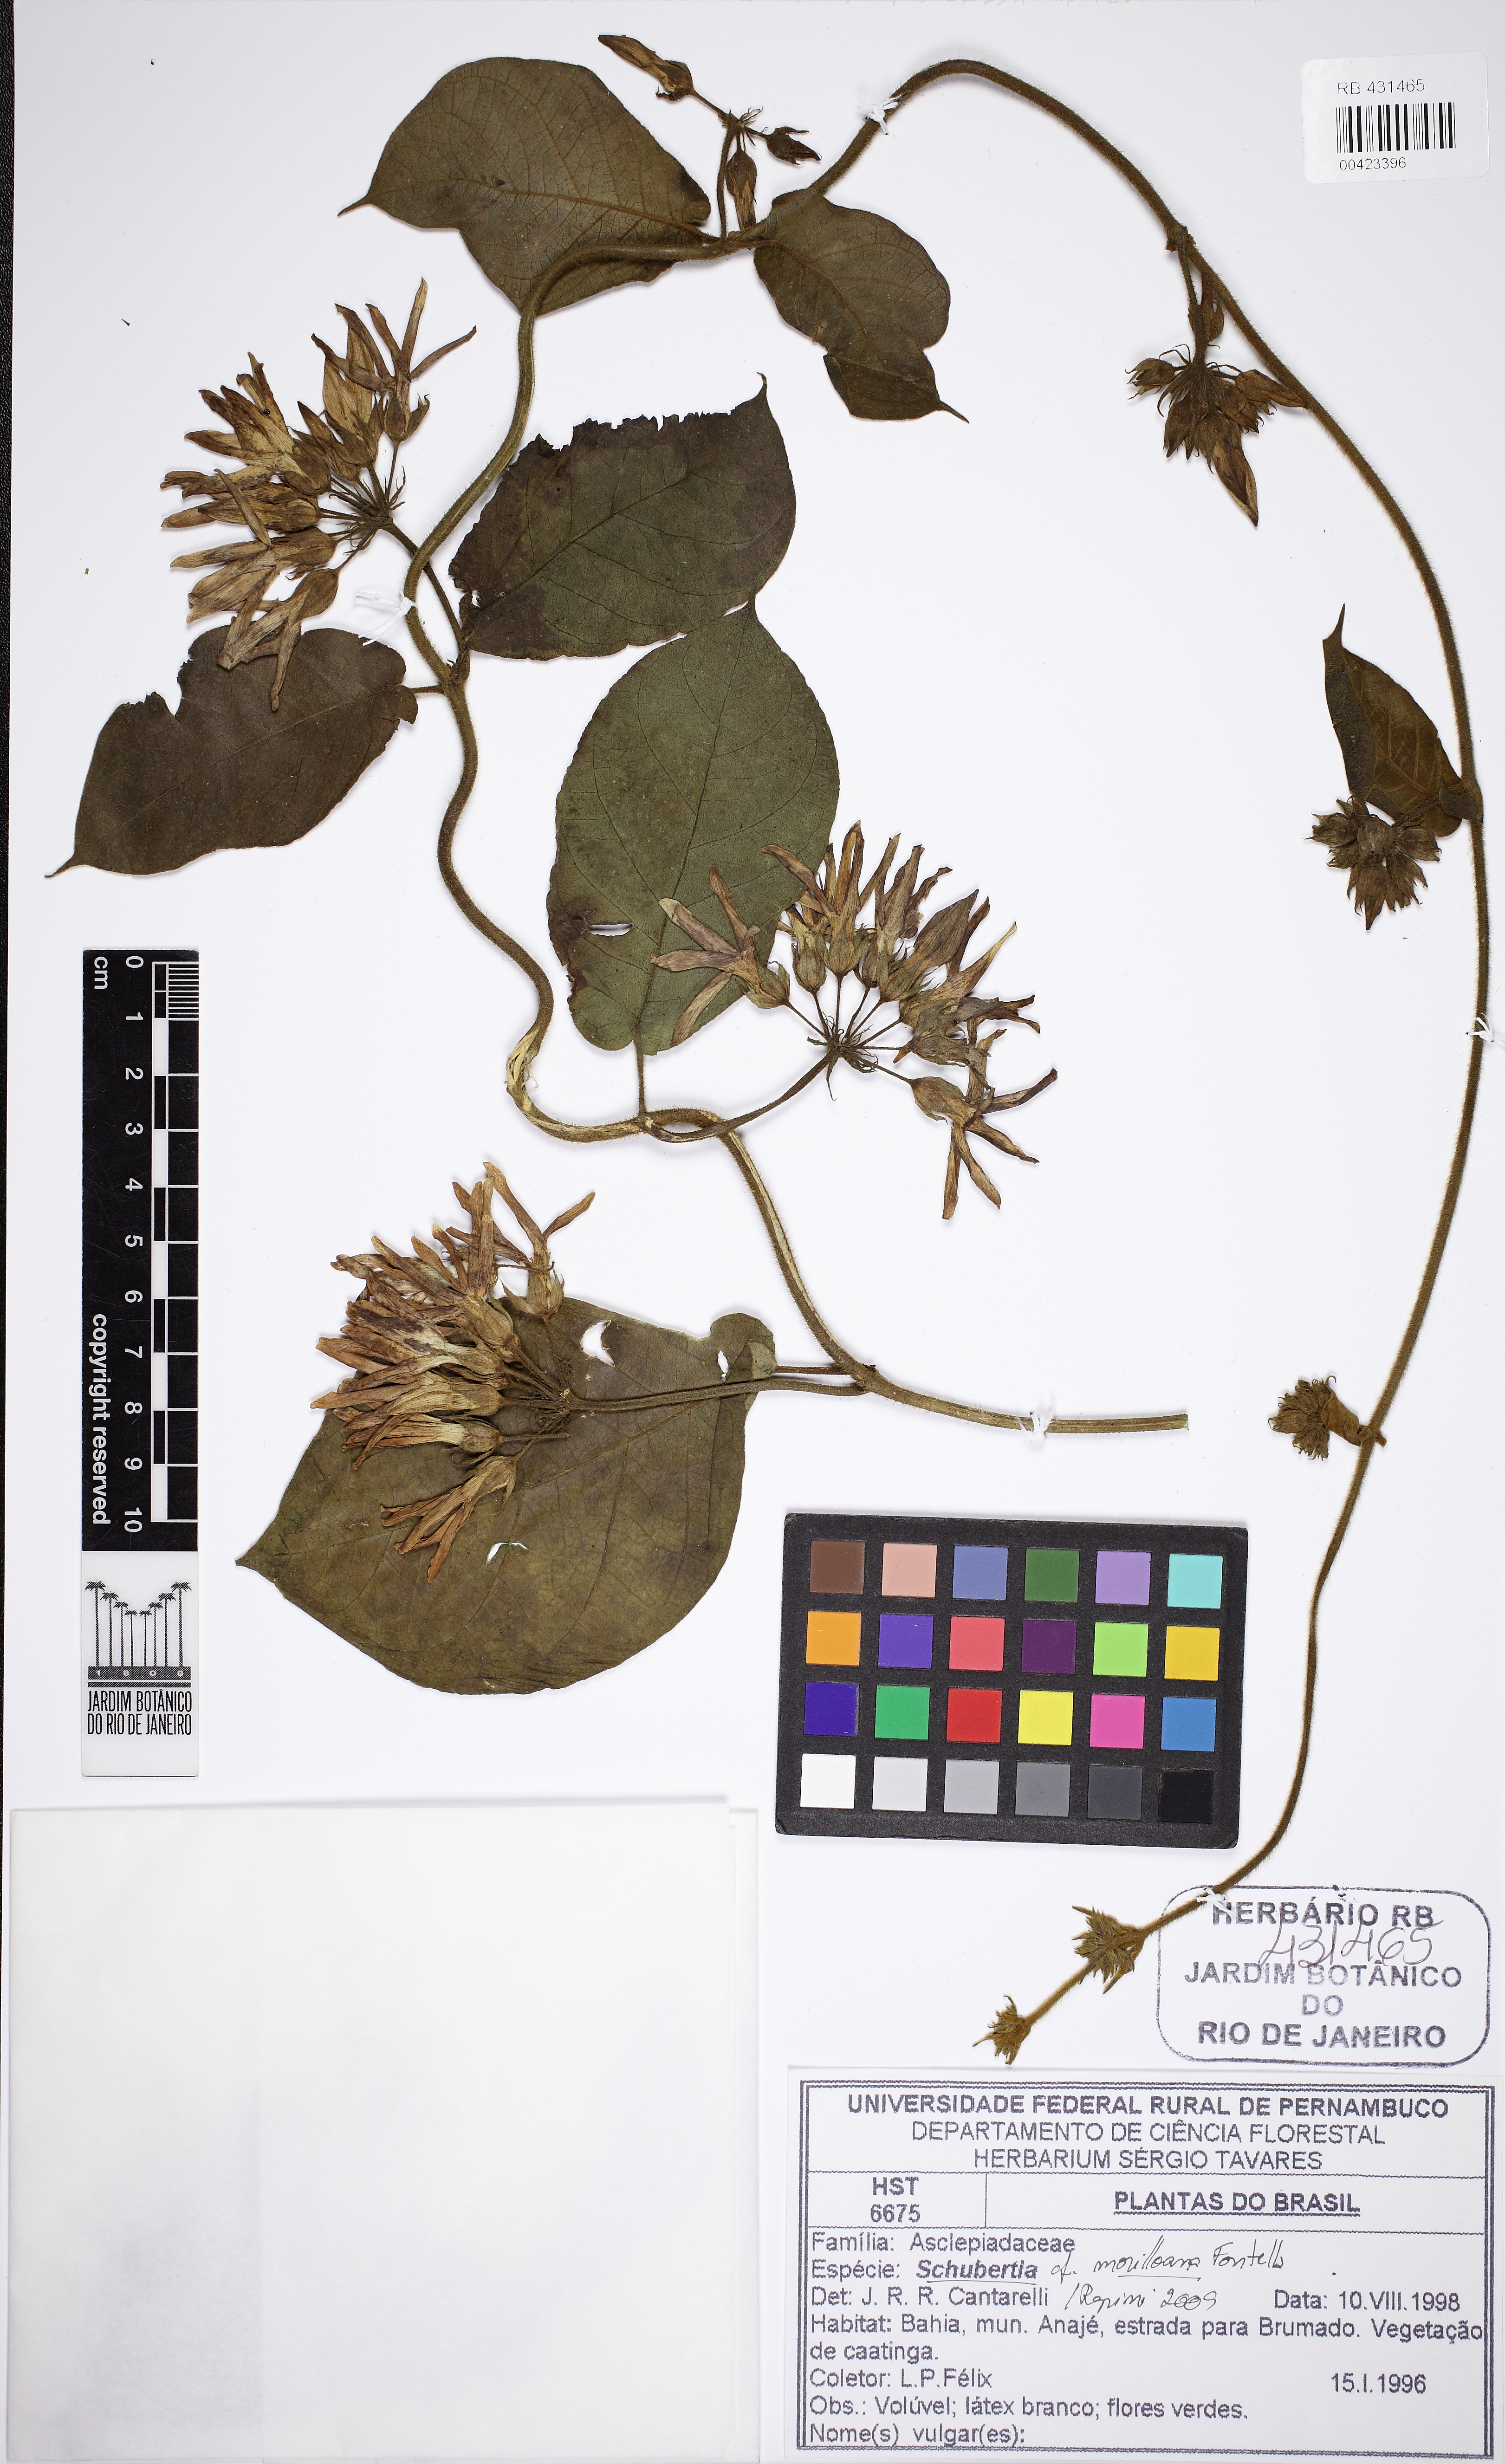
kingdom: Plantae
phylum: Tracheophyta
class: Magnoliopsida
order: Gentianales
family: Apocynaceae
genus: Schubertia
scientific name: Schubertia morilloana
